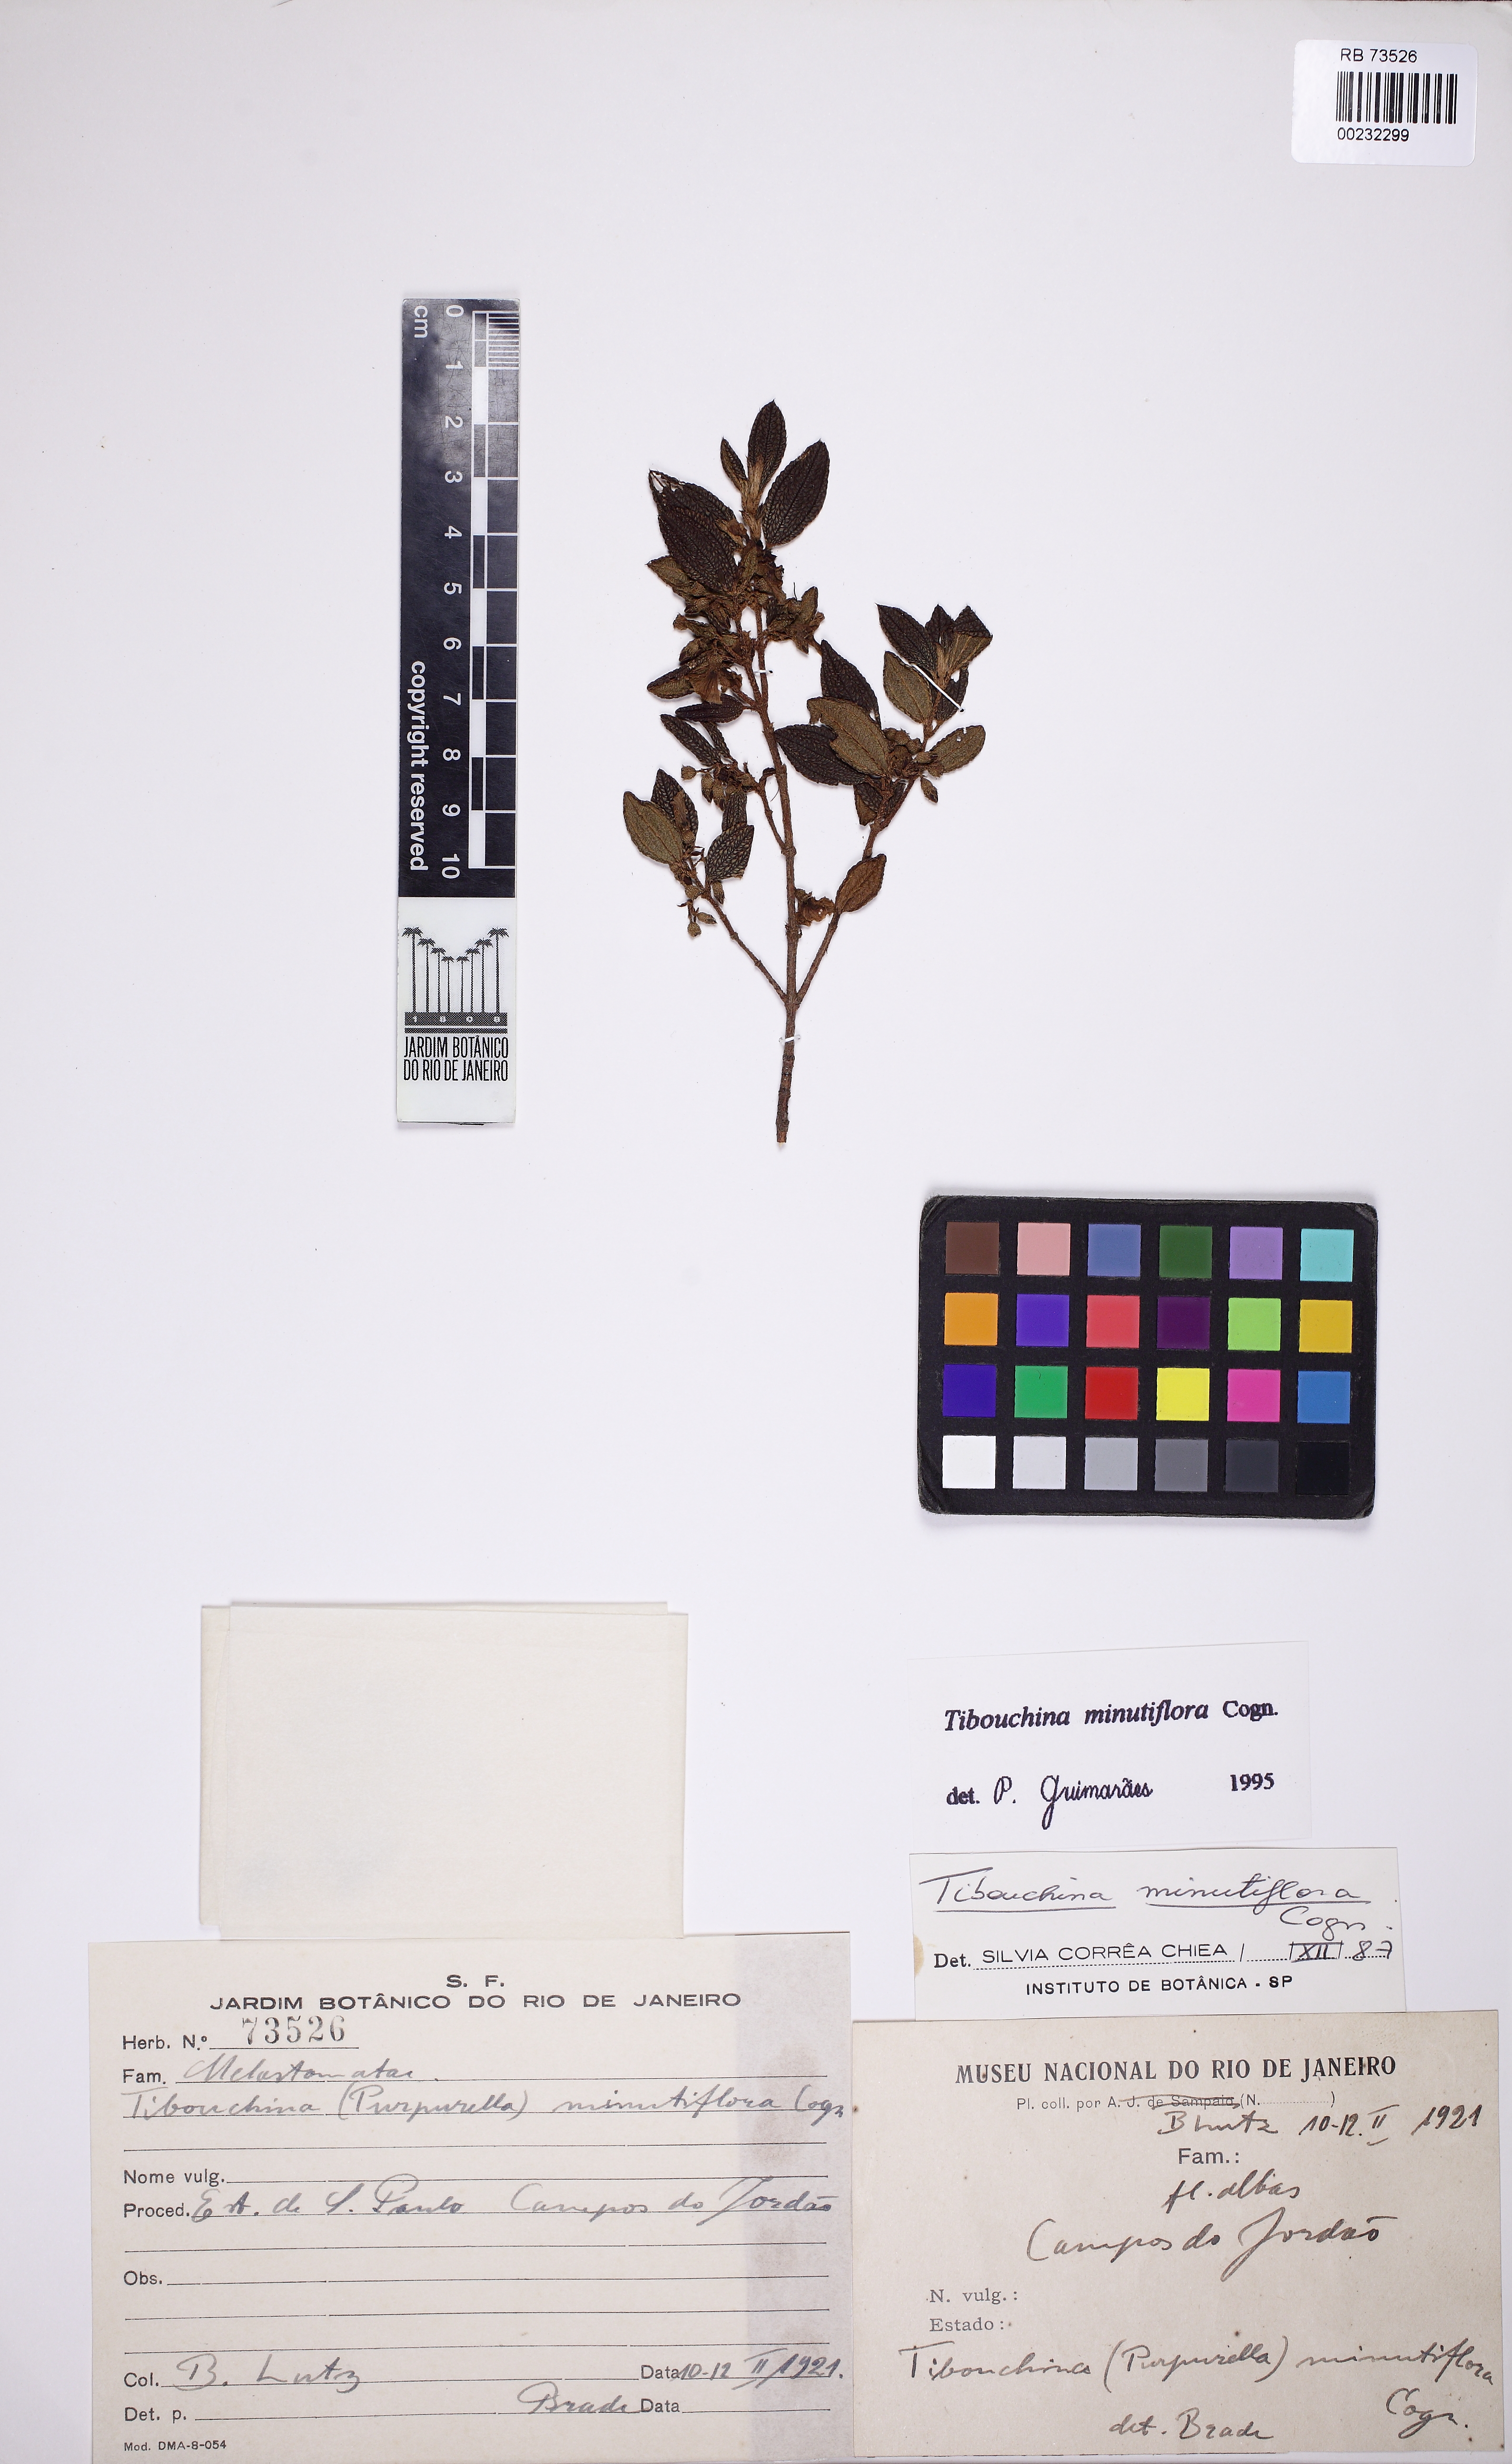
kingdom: Plantae
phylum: Tracheophyta
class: Magnoliopsida
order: Myrtales
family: Melastomataceae
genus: Tibouchina
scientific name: Tibouchina nigricans
